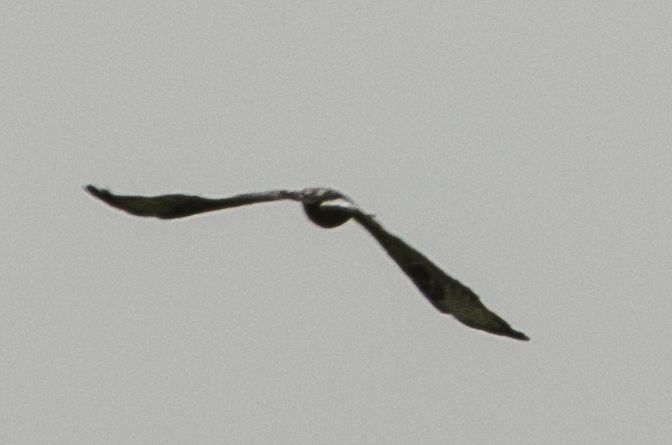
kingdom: Animalia
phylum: Chordata
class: Aves
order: Accipitriformes
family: Accipitridae
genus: Buteo
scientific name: Buteo lagopus
